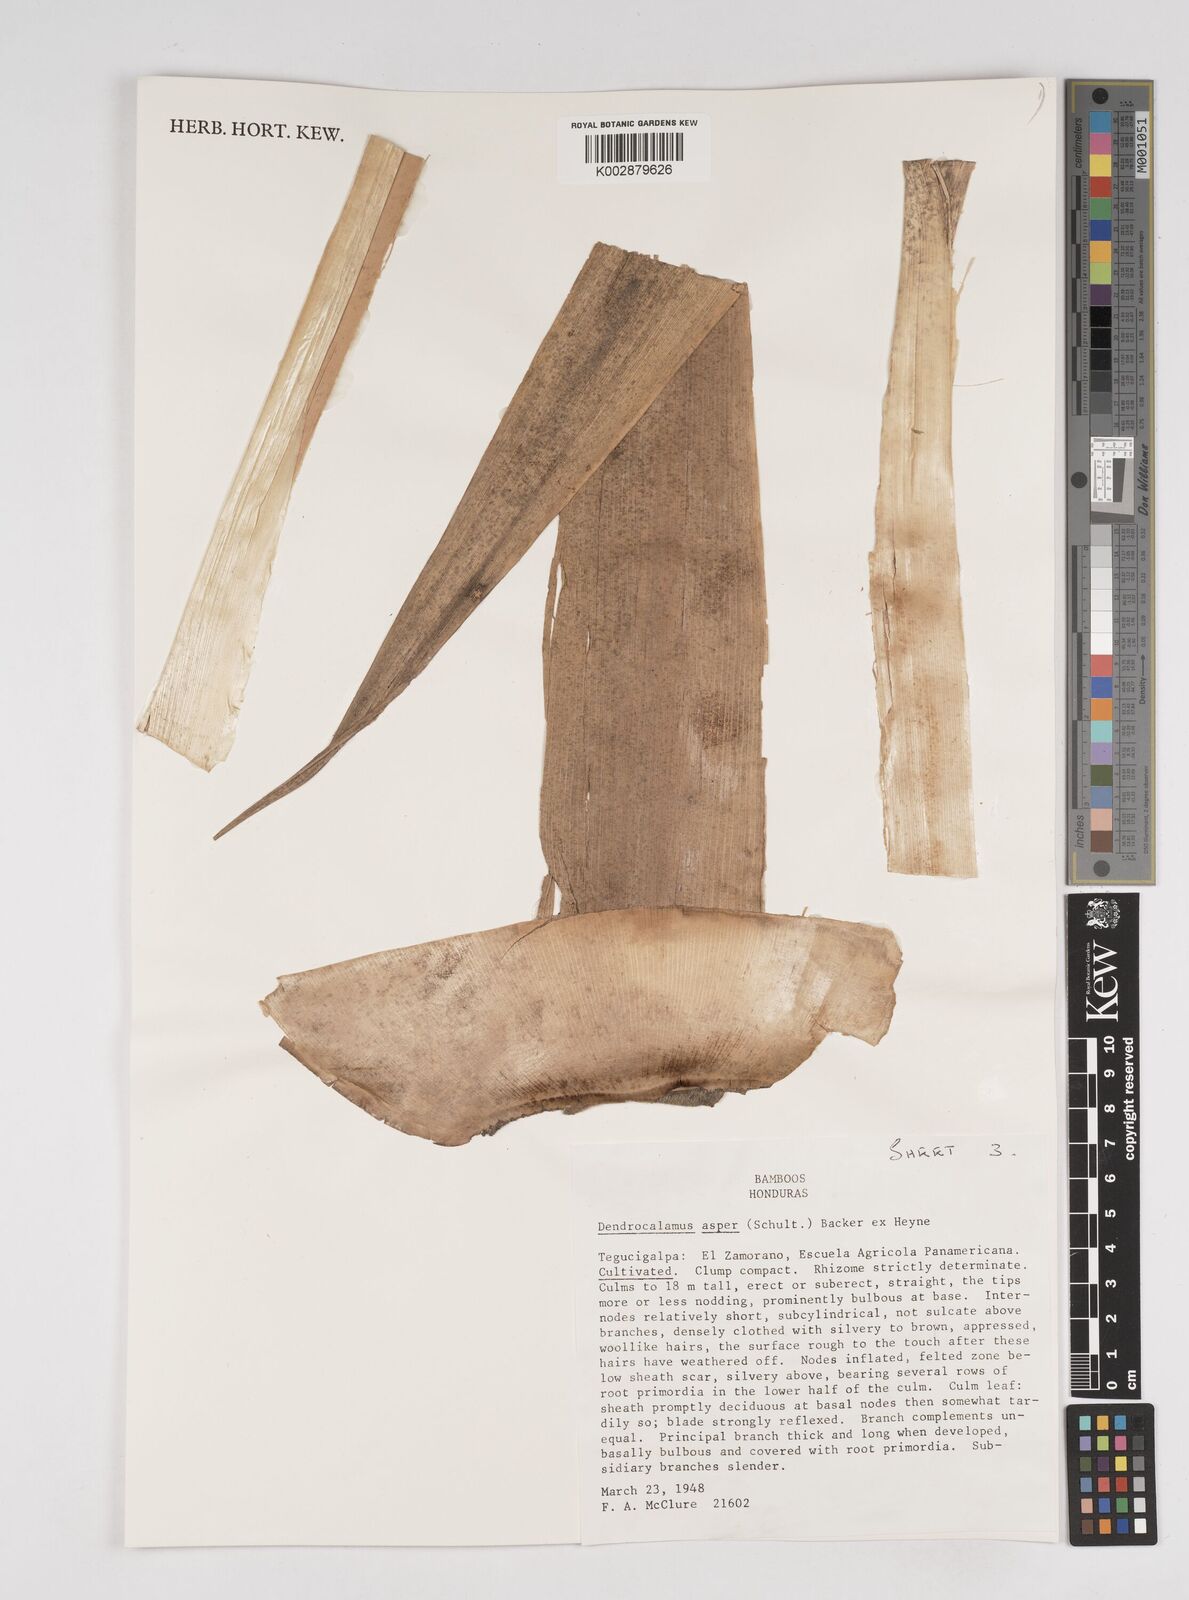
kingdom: Plantae
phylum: Tracheophyta
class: Liliopsida
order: Poales
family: Poaceae
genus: Dendrocalamus
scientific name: Dendrocalamus asper
